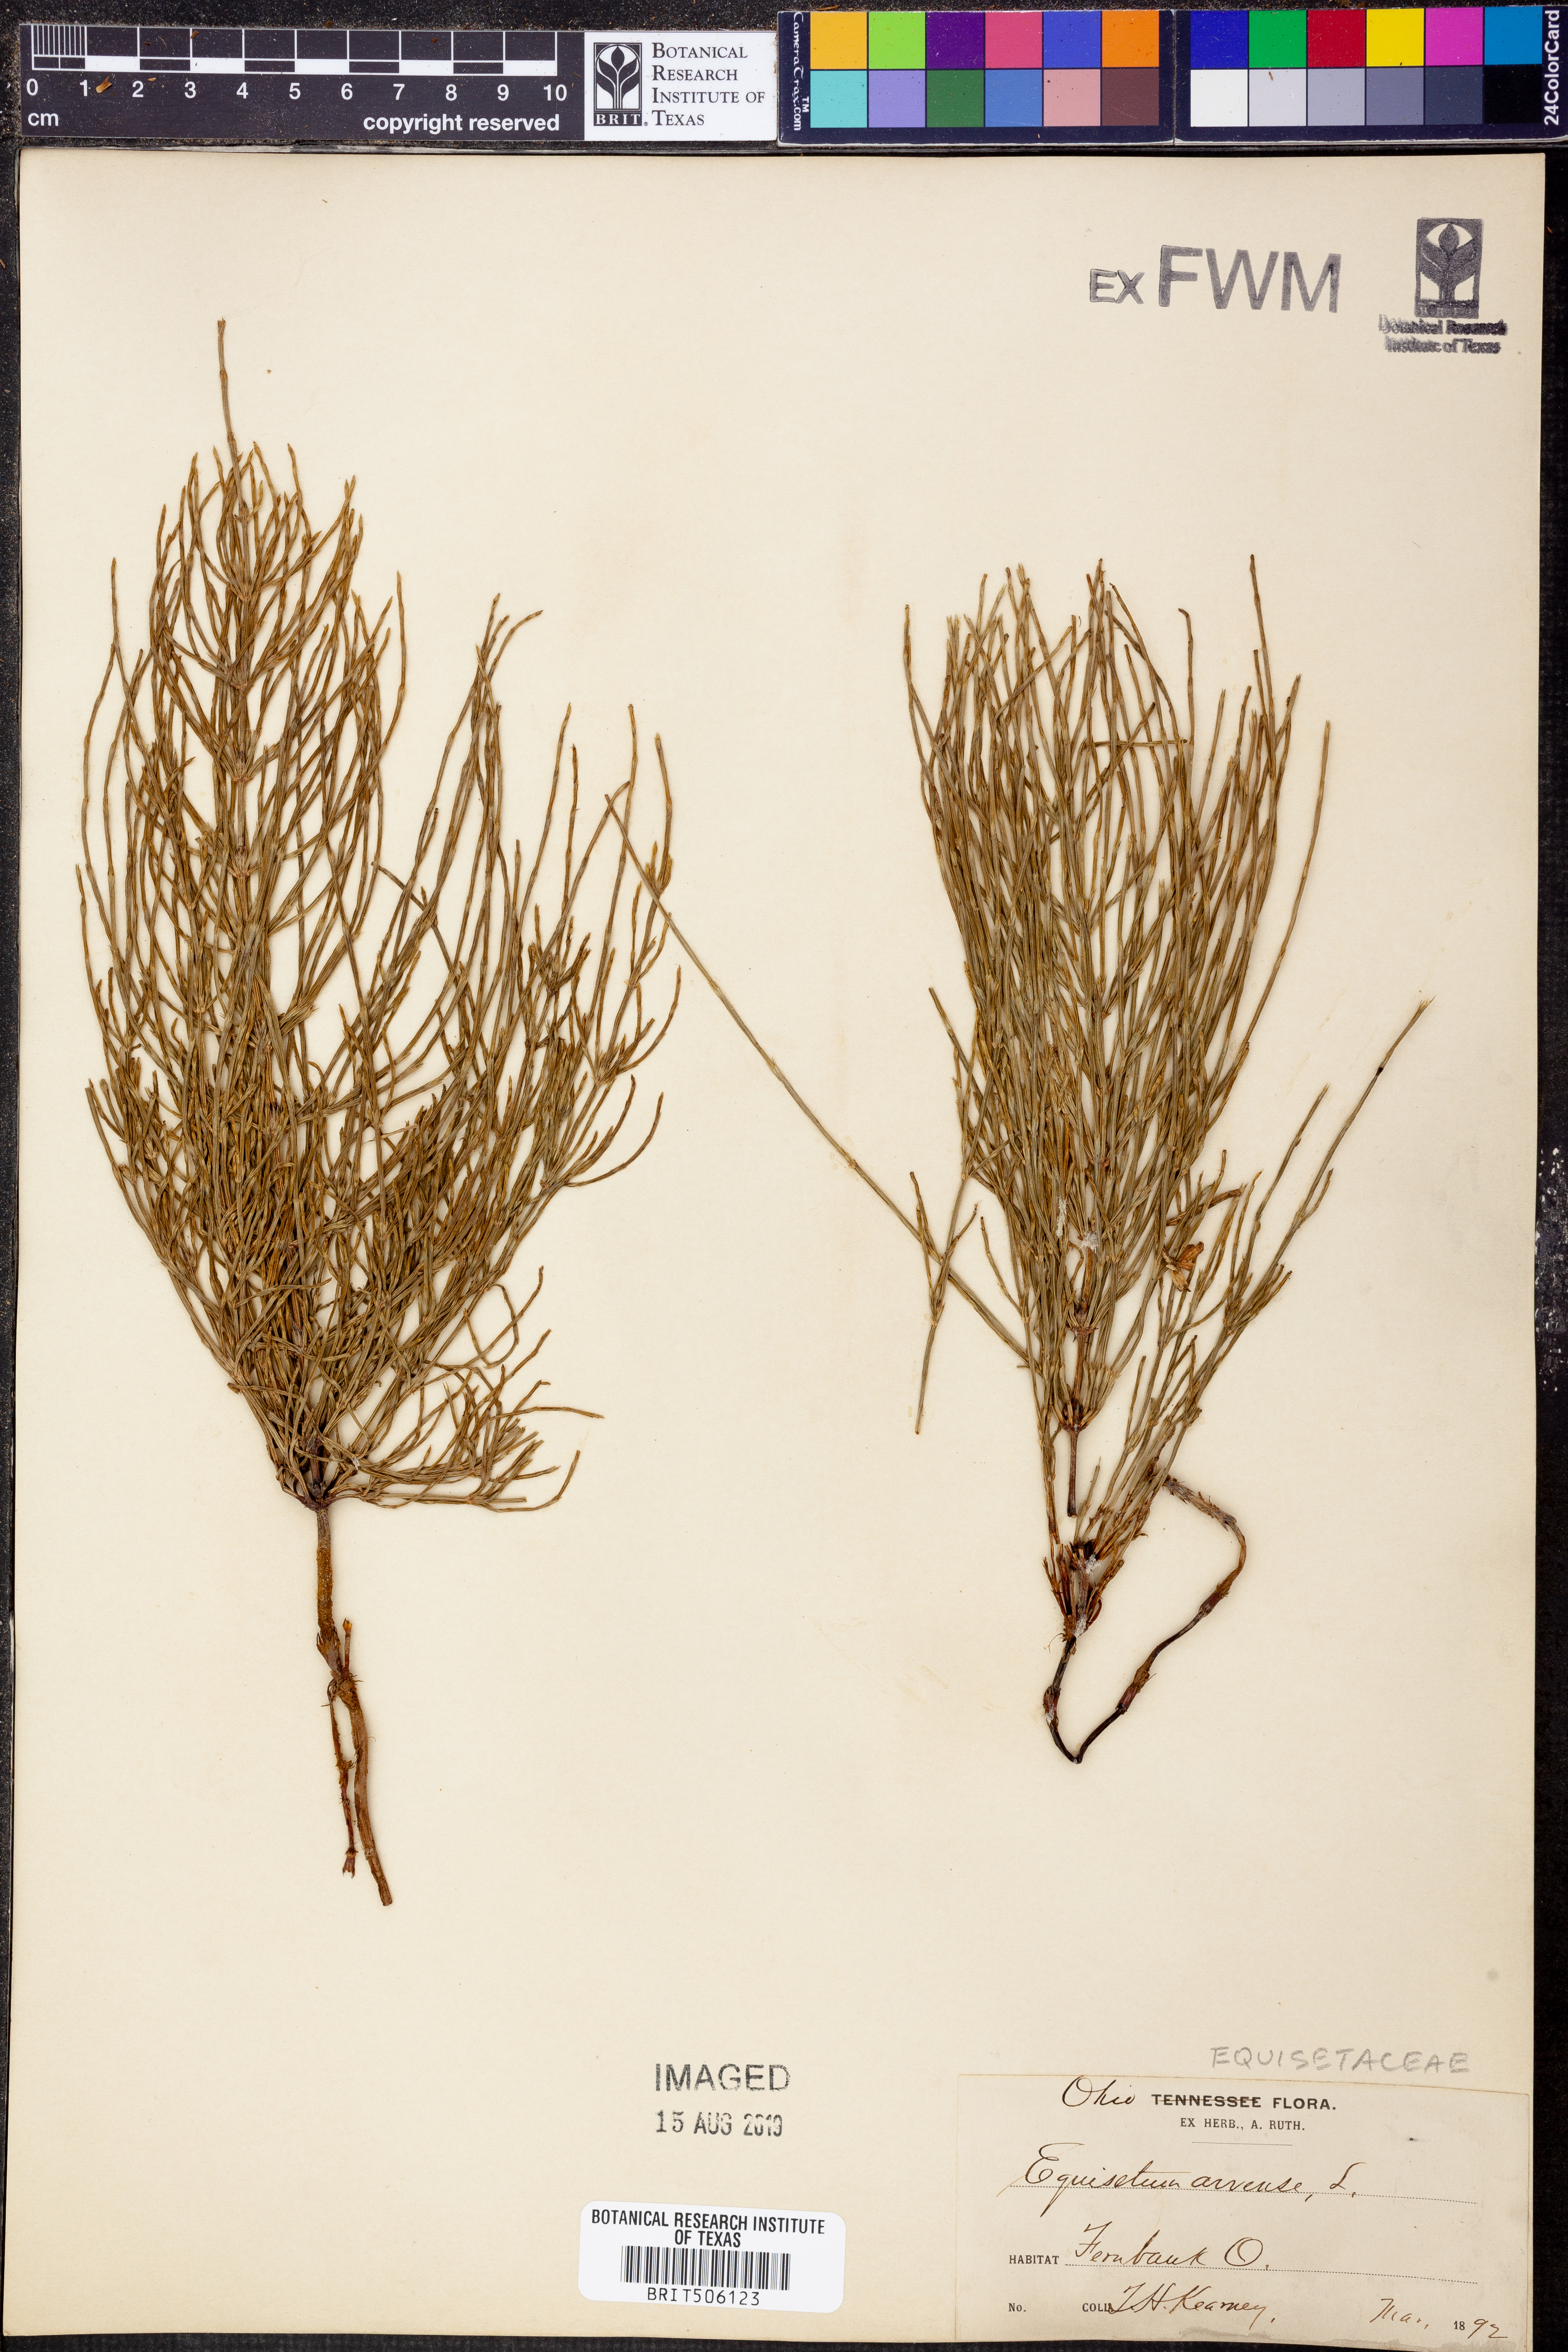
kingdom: Plantae
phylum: Tracheophyta
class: Polypodiopsida
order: Equisetales
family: Equisetaceae
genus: Equisetum
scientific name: Equisetum arvense
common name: Field horsetail
